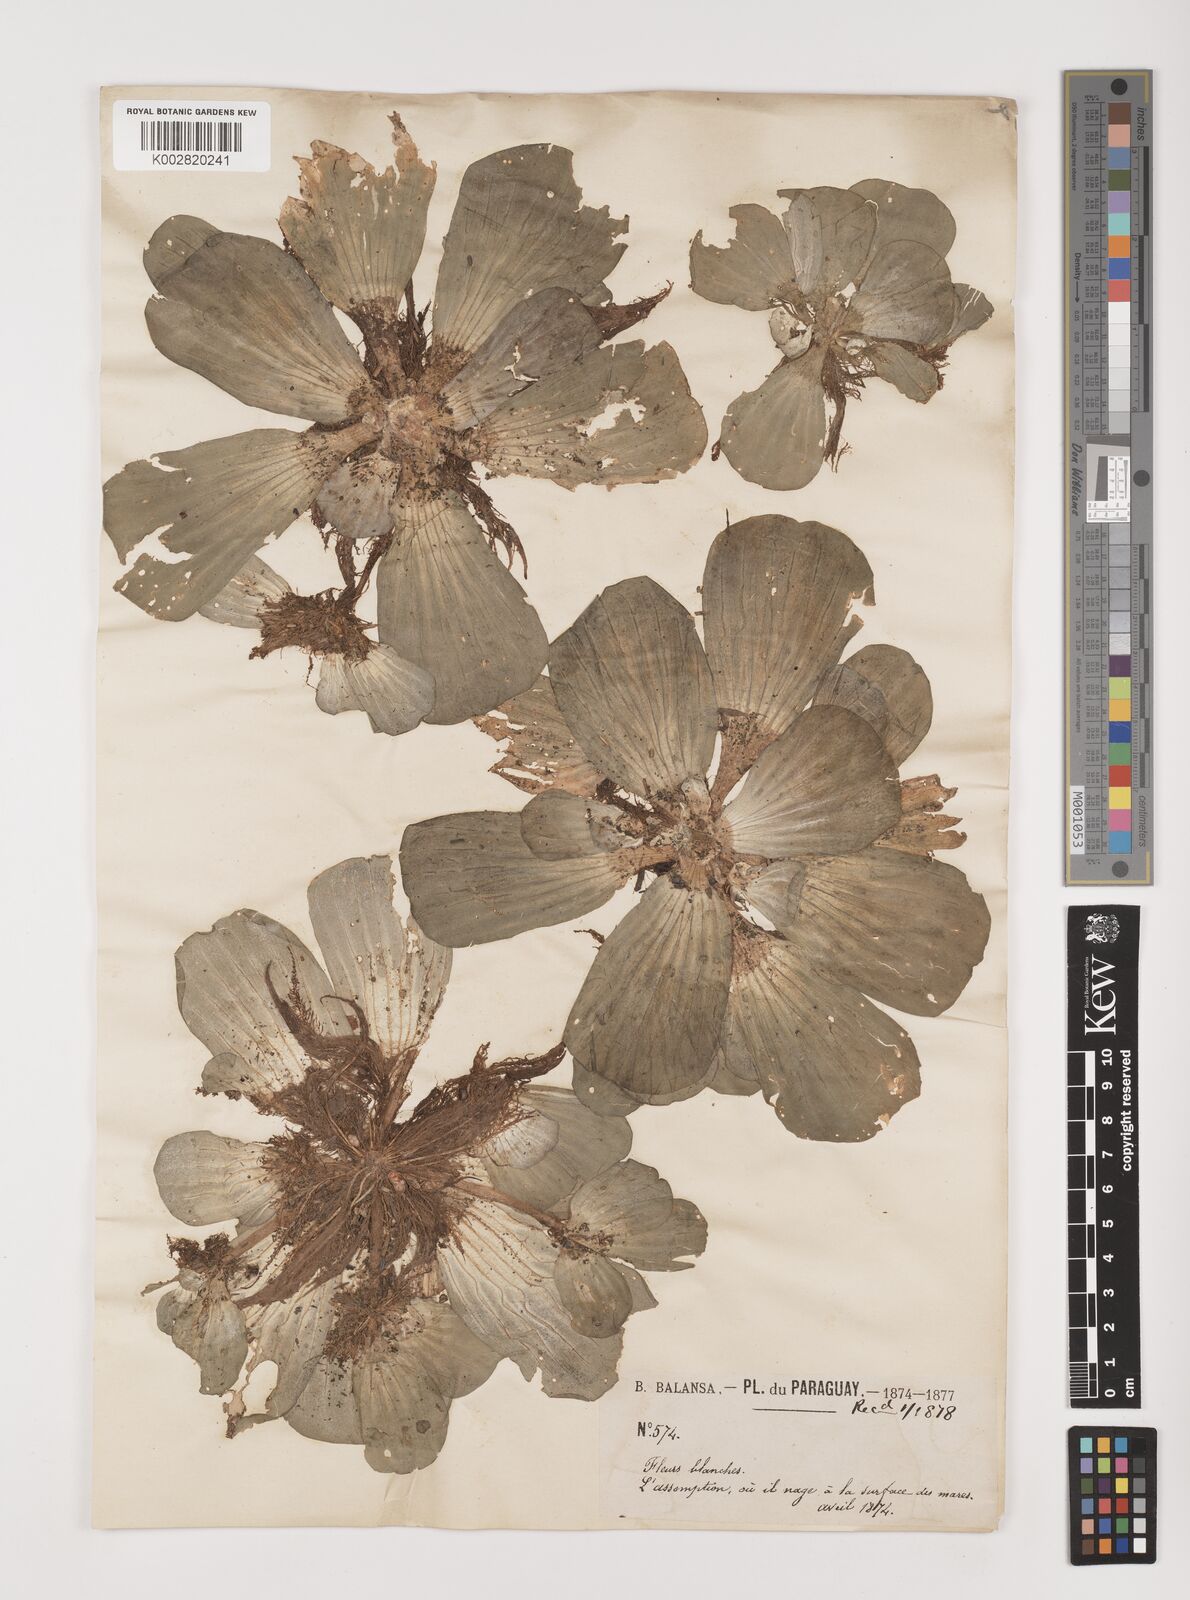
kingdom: Plantae
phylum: Tracheophyta
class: Liliopsida
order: Alismatales
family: Araceae
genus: Pistia
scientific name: Pistia stratiotes
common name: Water lettuce
